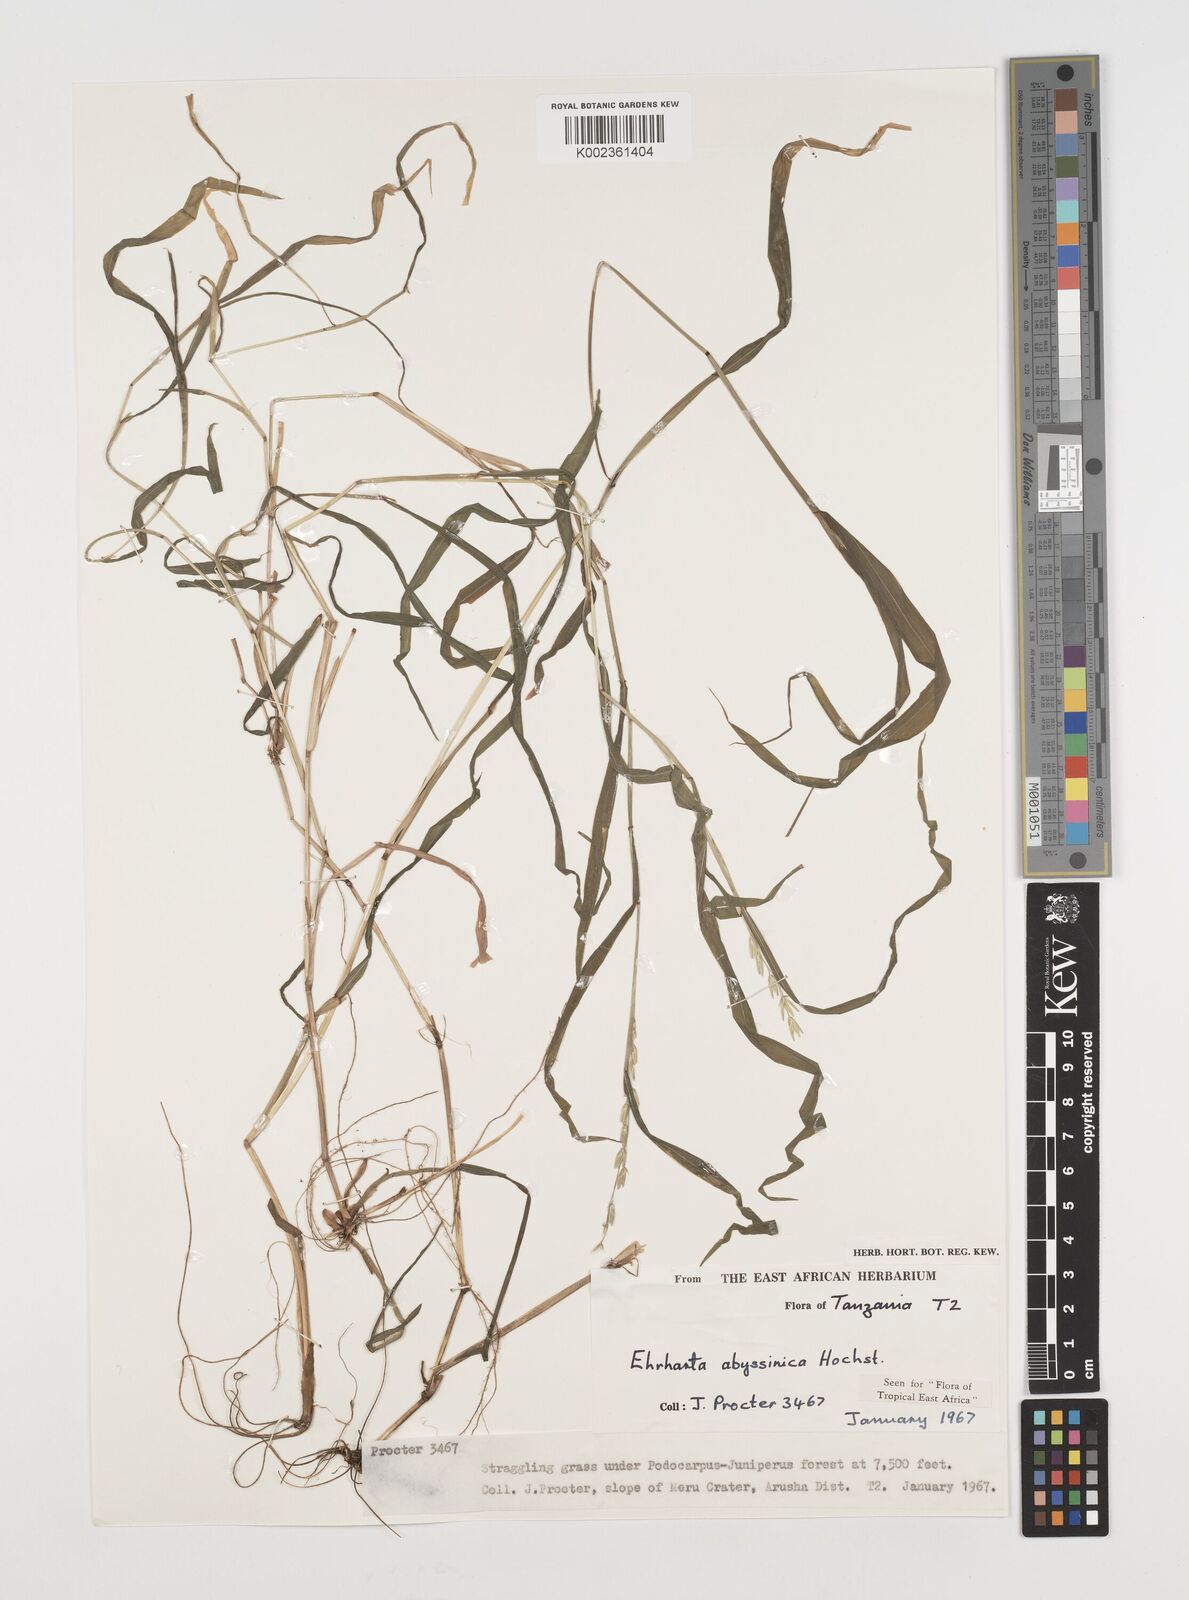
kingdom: Plantae
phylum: Tracheophyta
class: Liliopsida
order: Poales
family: Poaceae
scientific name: Poaceae
